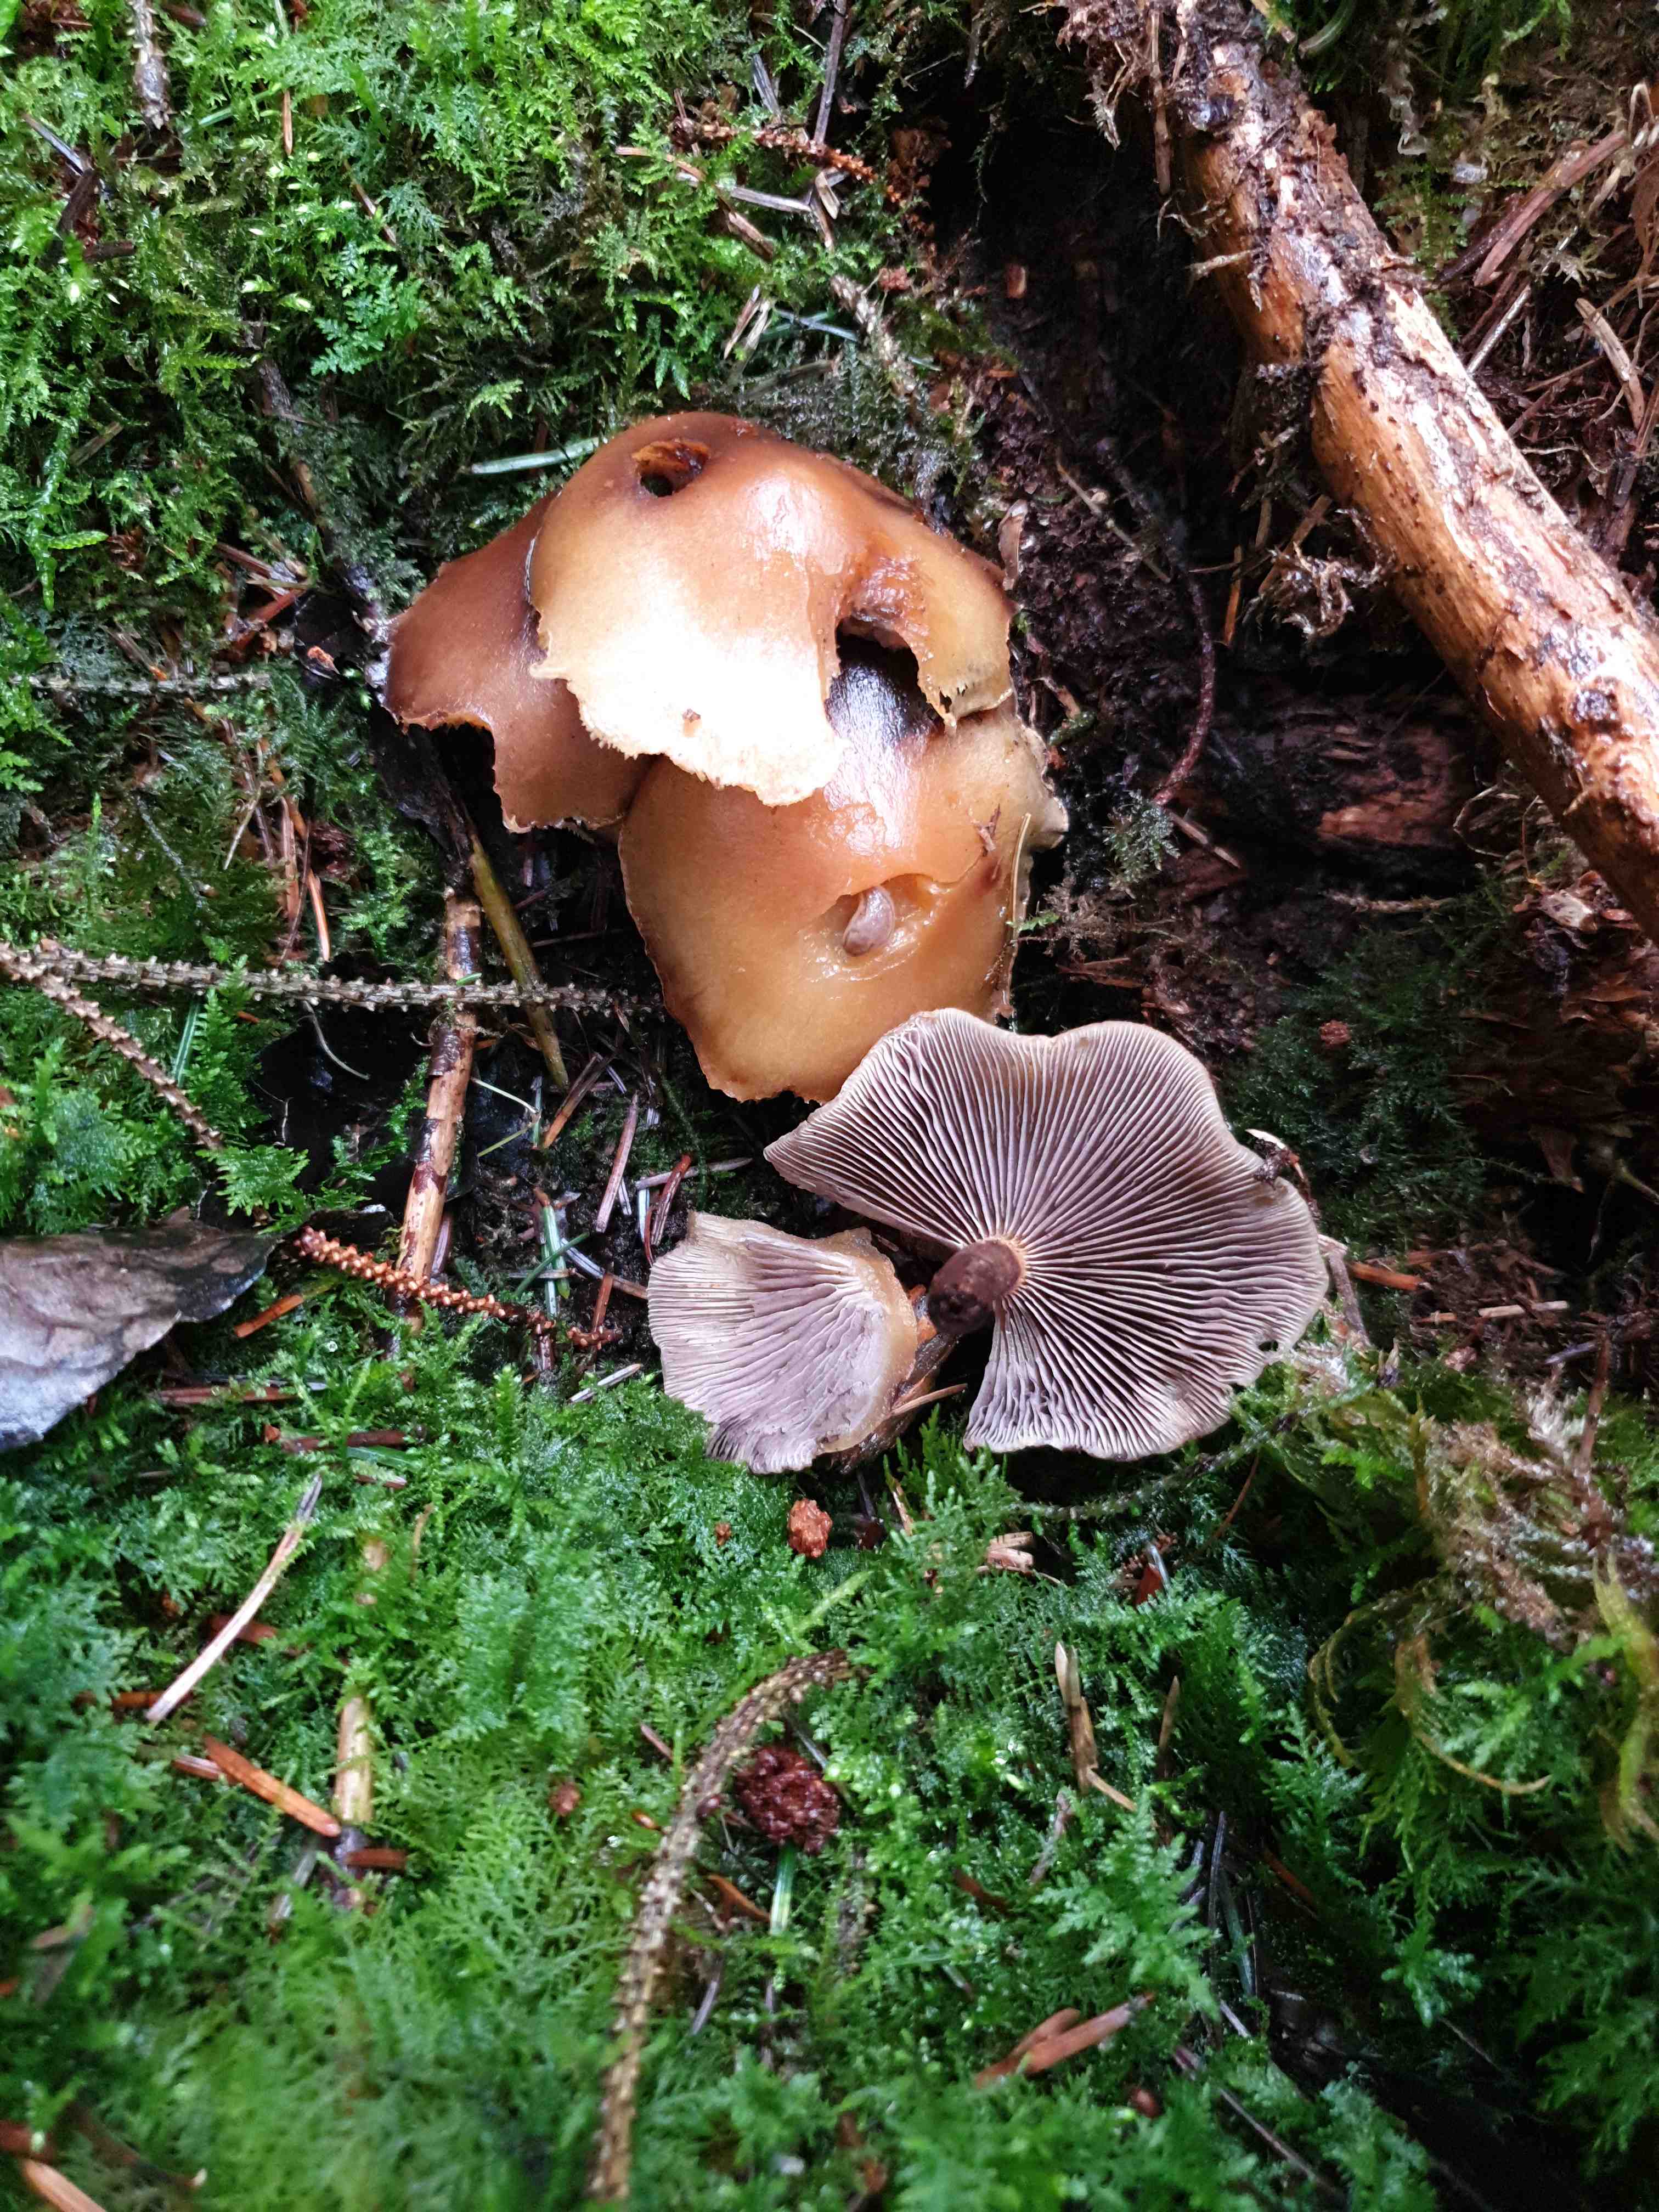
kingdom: Fungi
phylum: Basidiomycota
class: Agaricomycetes
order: Agaricales
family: Strophariaceae
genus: Hypholoma
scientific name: Hypholoma capnoides
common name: gran-svovlhat
